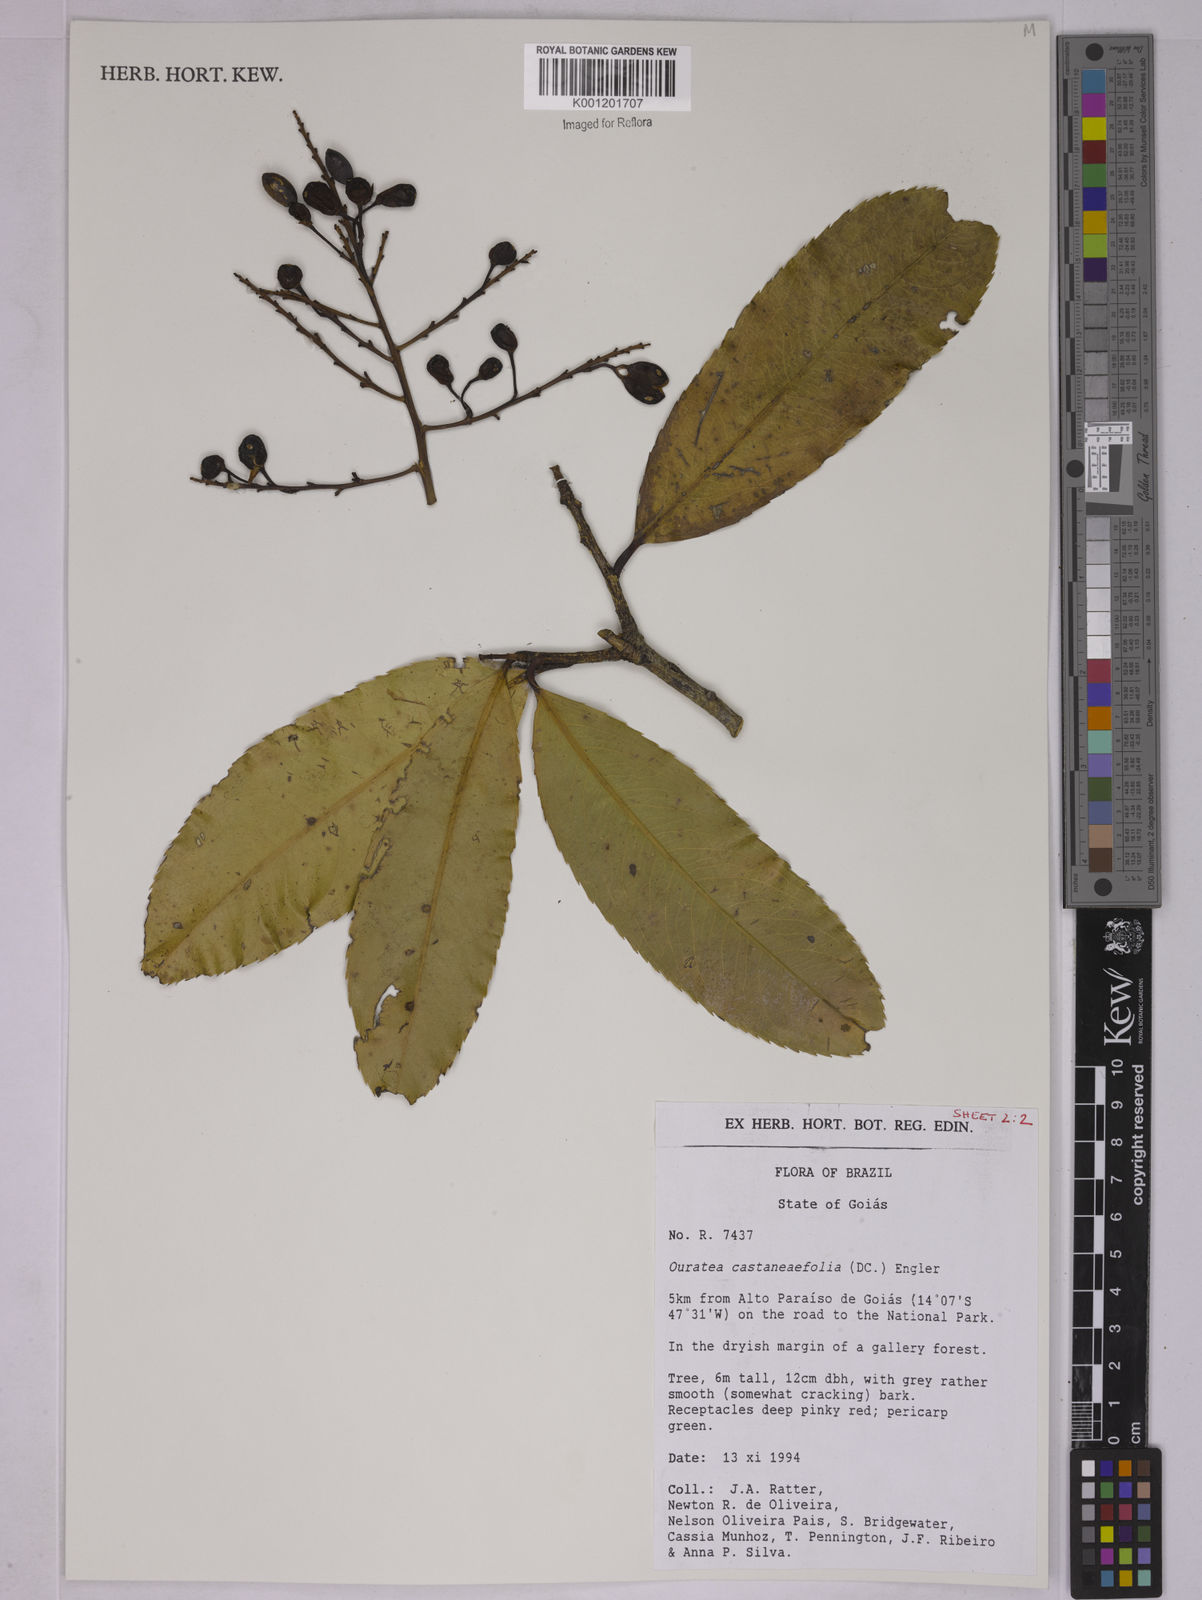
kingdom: Plantae
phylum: Tracheophyta
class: Magnoliopsida
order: Malpighiales
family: Ochnaceae
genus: Ouratea
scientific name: Ouratea castaneifolia
